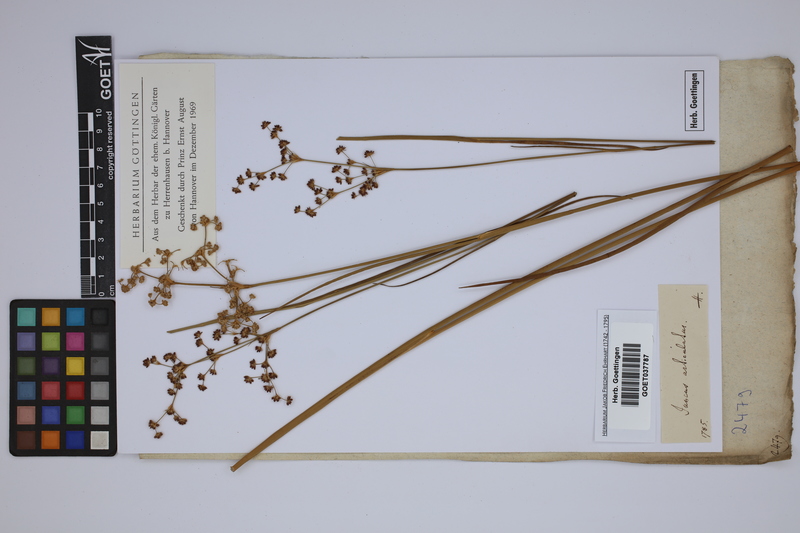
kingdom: Plantae
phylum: Tracheophyta
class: Liliopsida
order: Poales
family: Juncaceae
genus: Juncus
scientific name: Juncus articulatus
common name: Jointed rush
